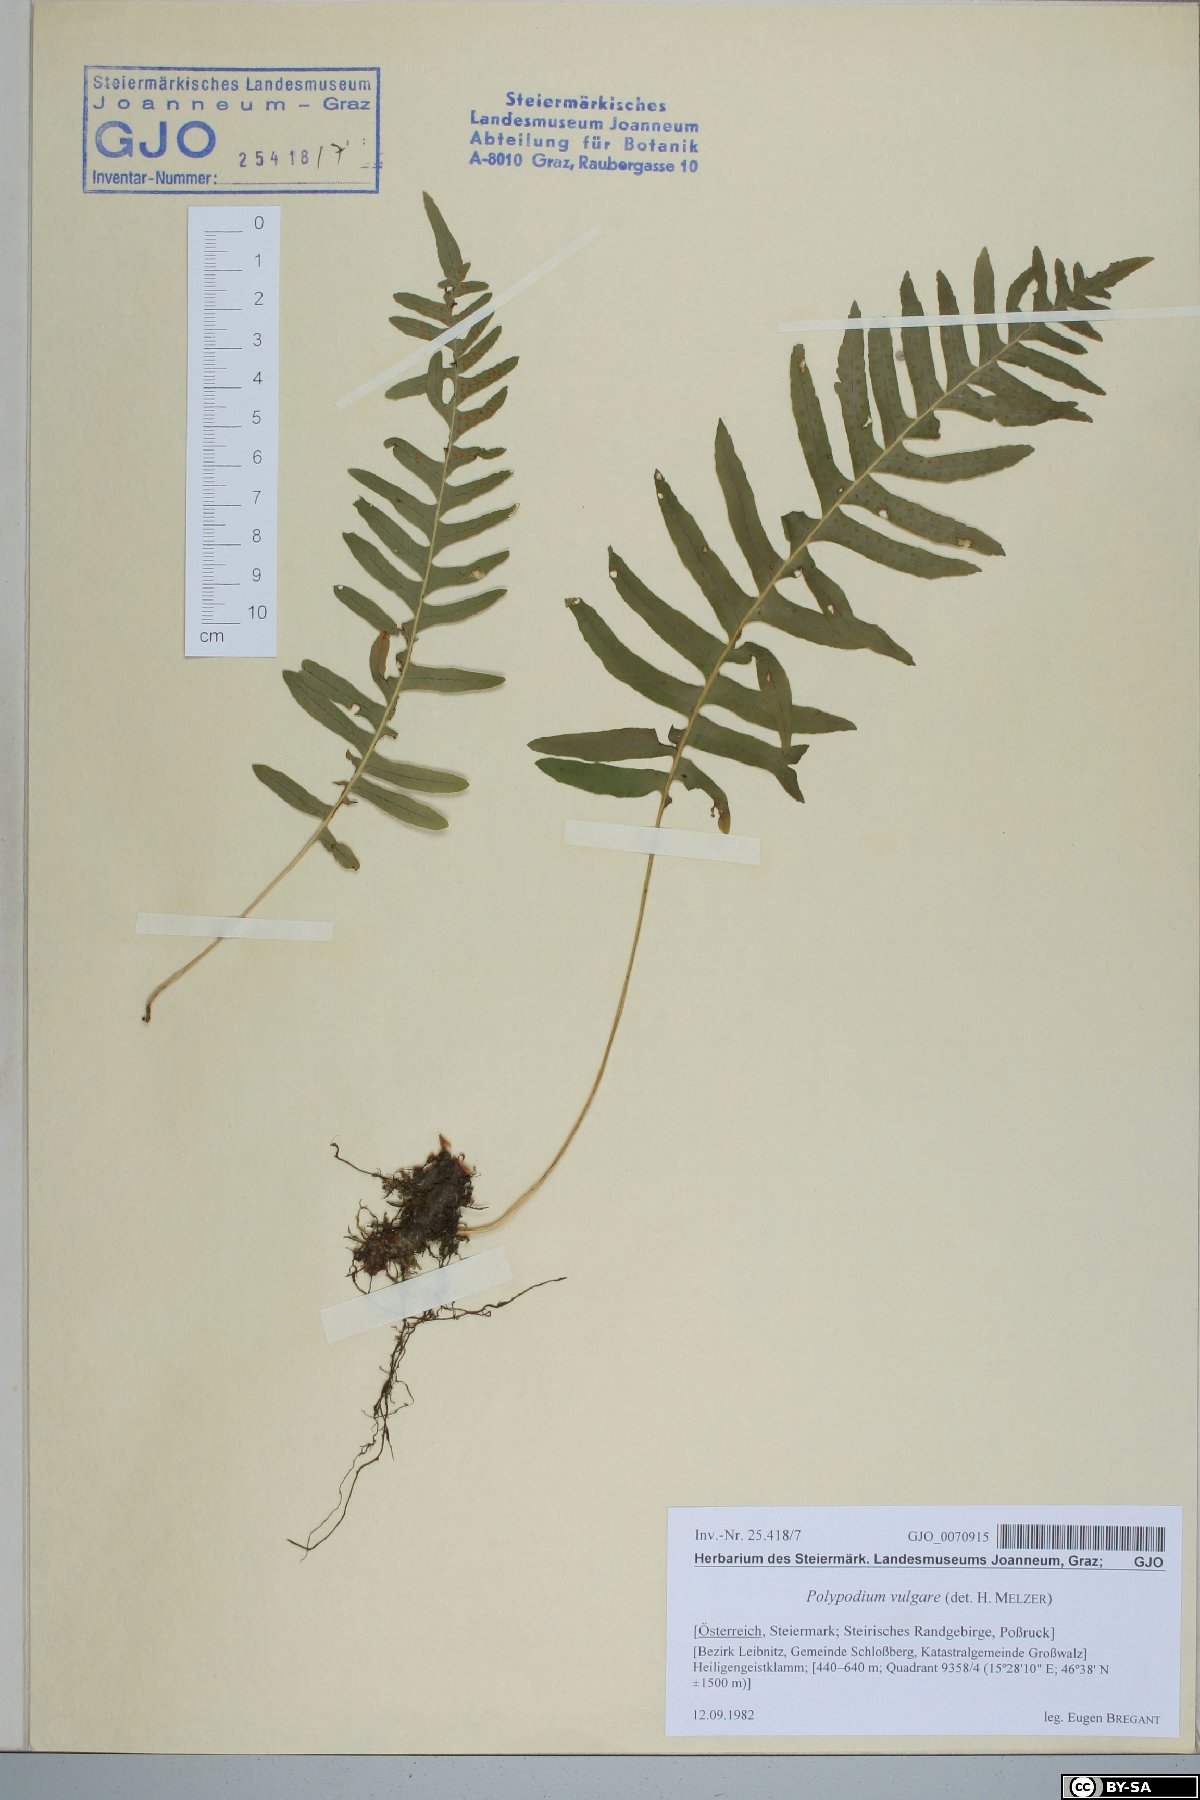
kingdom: Plantae
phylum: Tracheophyta
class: Polypodiopsida
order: Polypodiales
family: Polypodiaceae
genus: Polypodium
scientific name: Polypodium vulgare
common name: Common polypody
